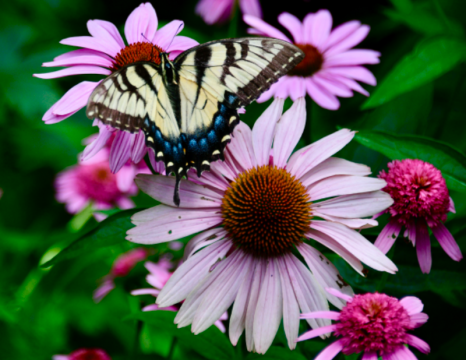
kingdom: Animalia
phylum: Arthropoda
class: Insecta
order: Lepidoptera
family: Papilionidae
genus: Pterourus
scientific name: Pterourus glaucus
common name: Eastern Tiger Swallowtail
